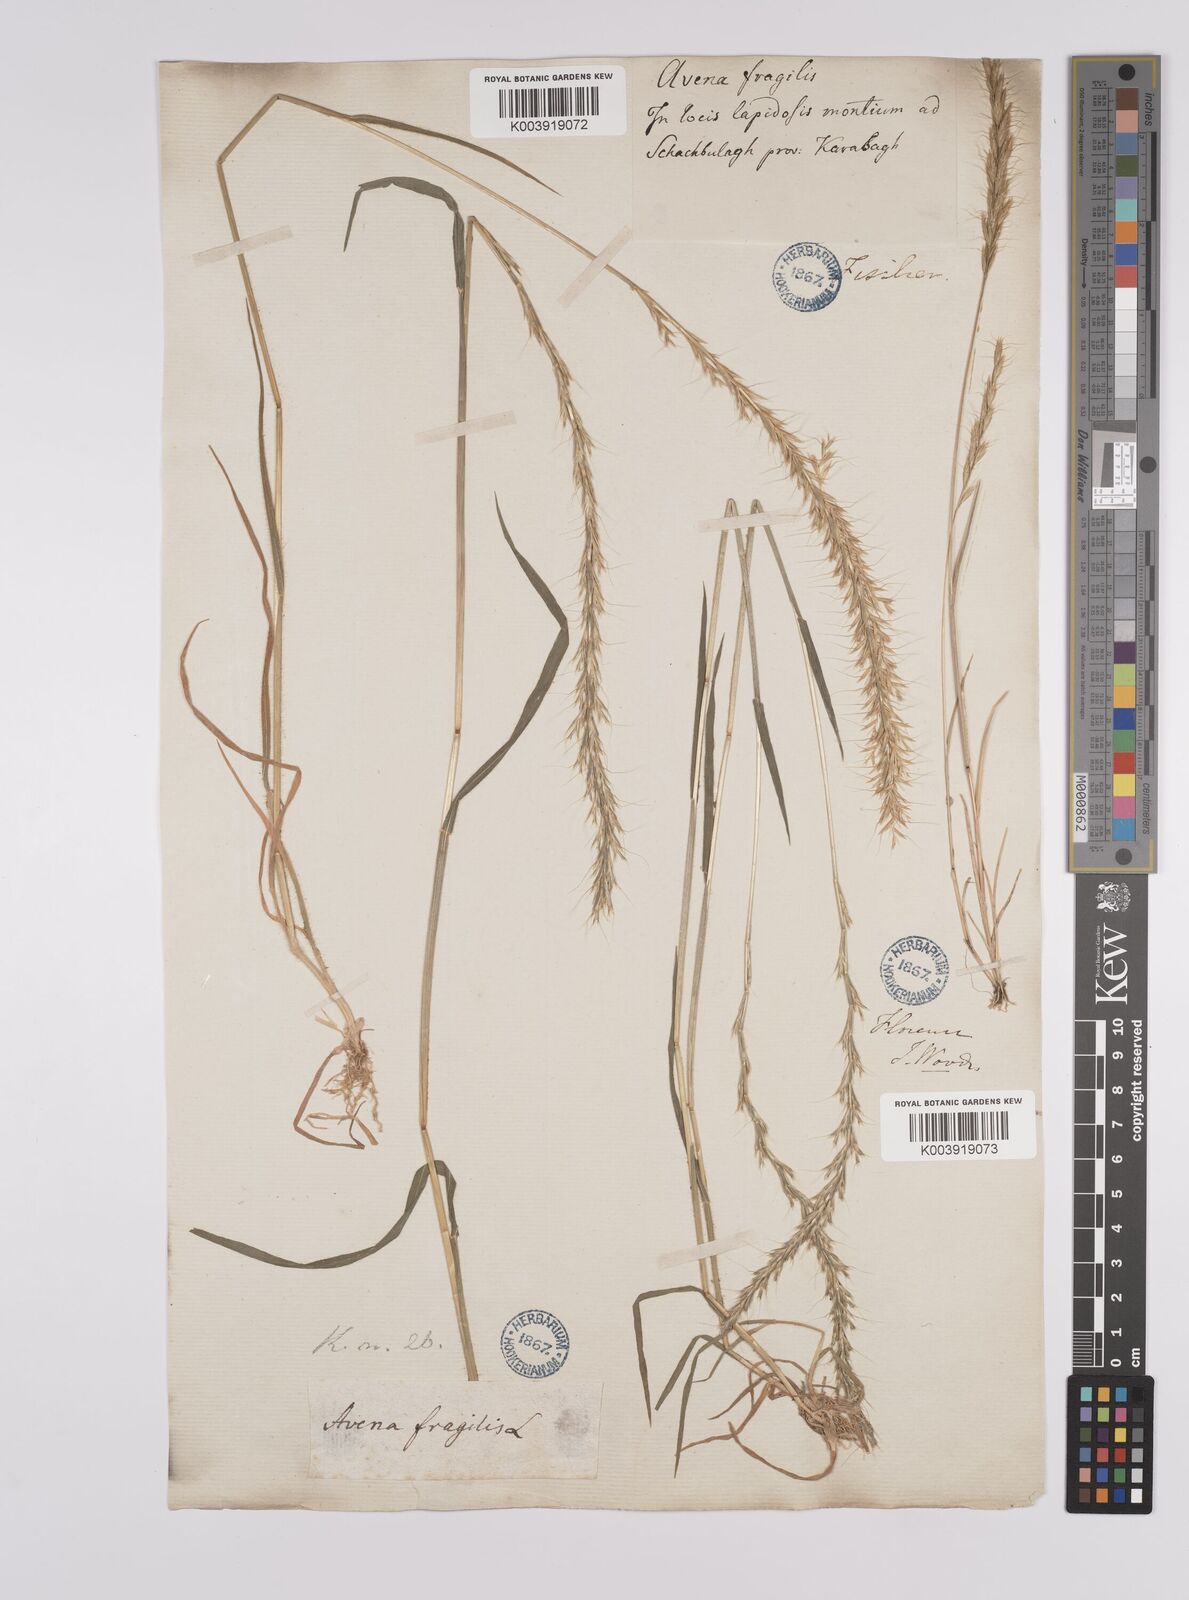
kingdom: Plantae
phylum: Tracheophyta
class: Liliopsida
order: Poales
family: Poaceae
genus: Gaudinia
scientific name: Gaudinia fragilis
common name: French oat-grass
